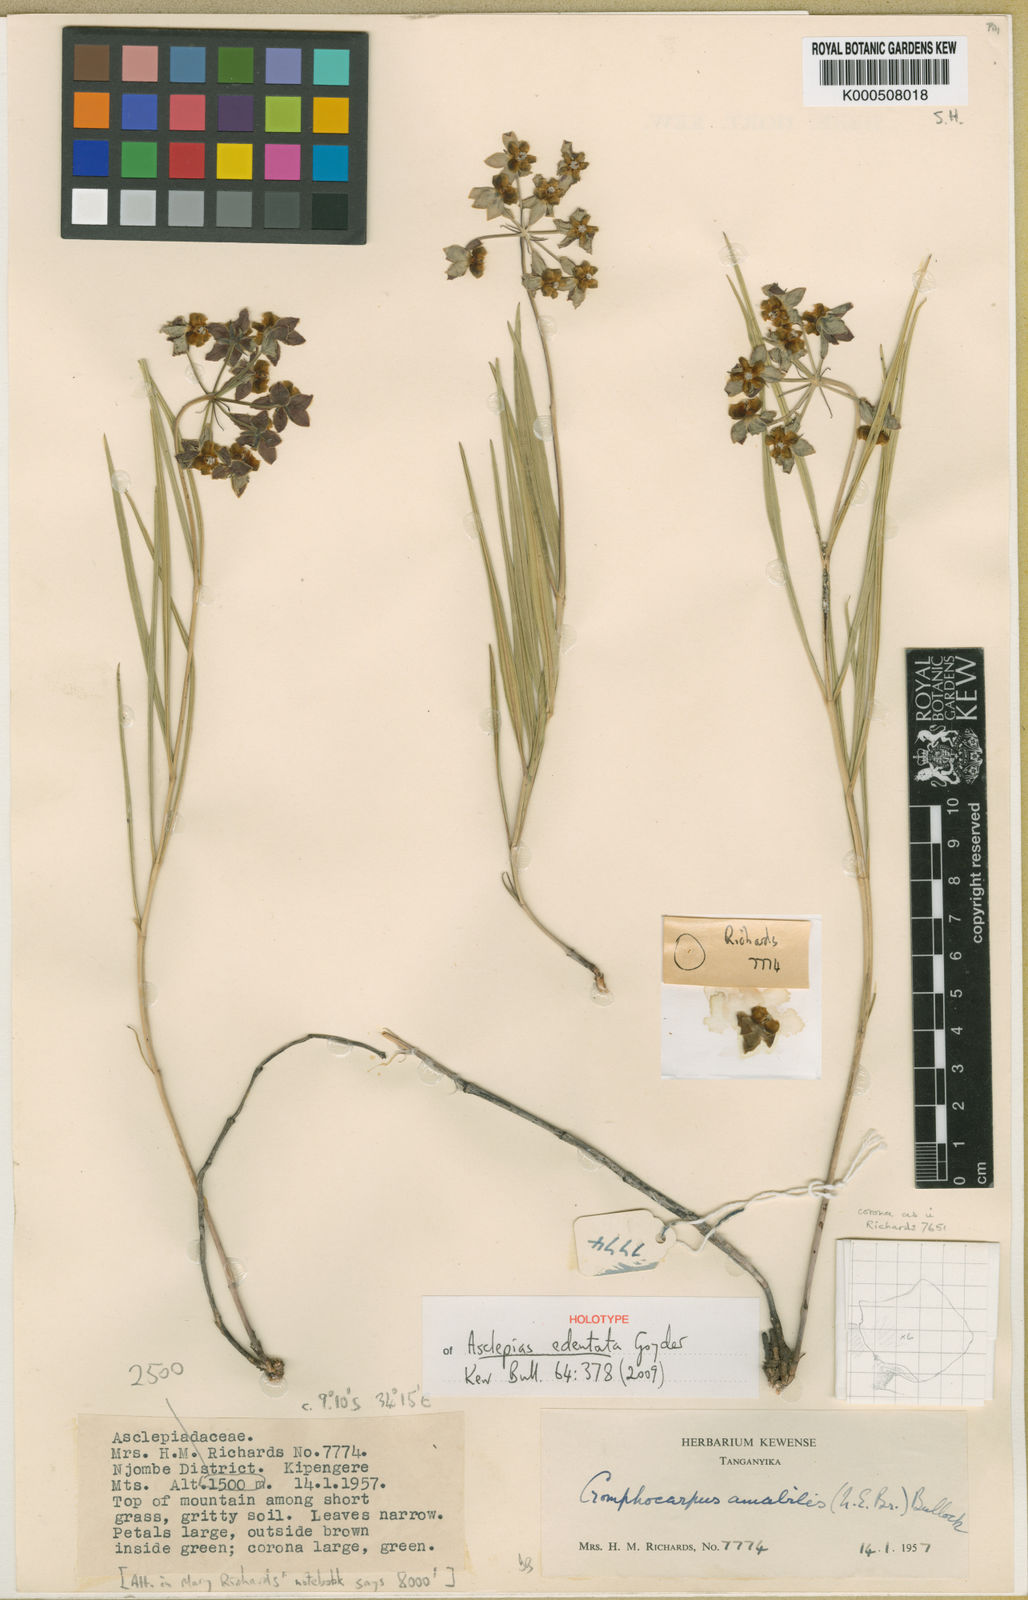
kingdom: Plantae
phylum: Tracheophyta
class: Magnoliopsida
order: Gentianales
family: Apocynaceae
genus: Asclepias
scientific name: Asclepias edentata
